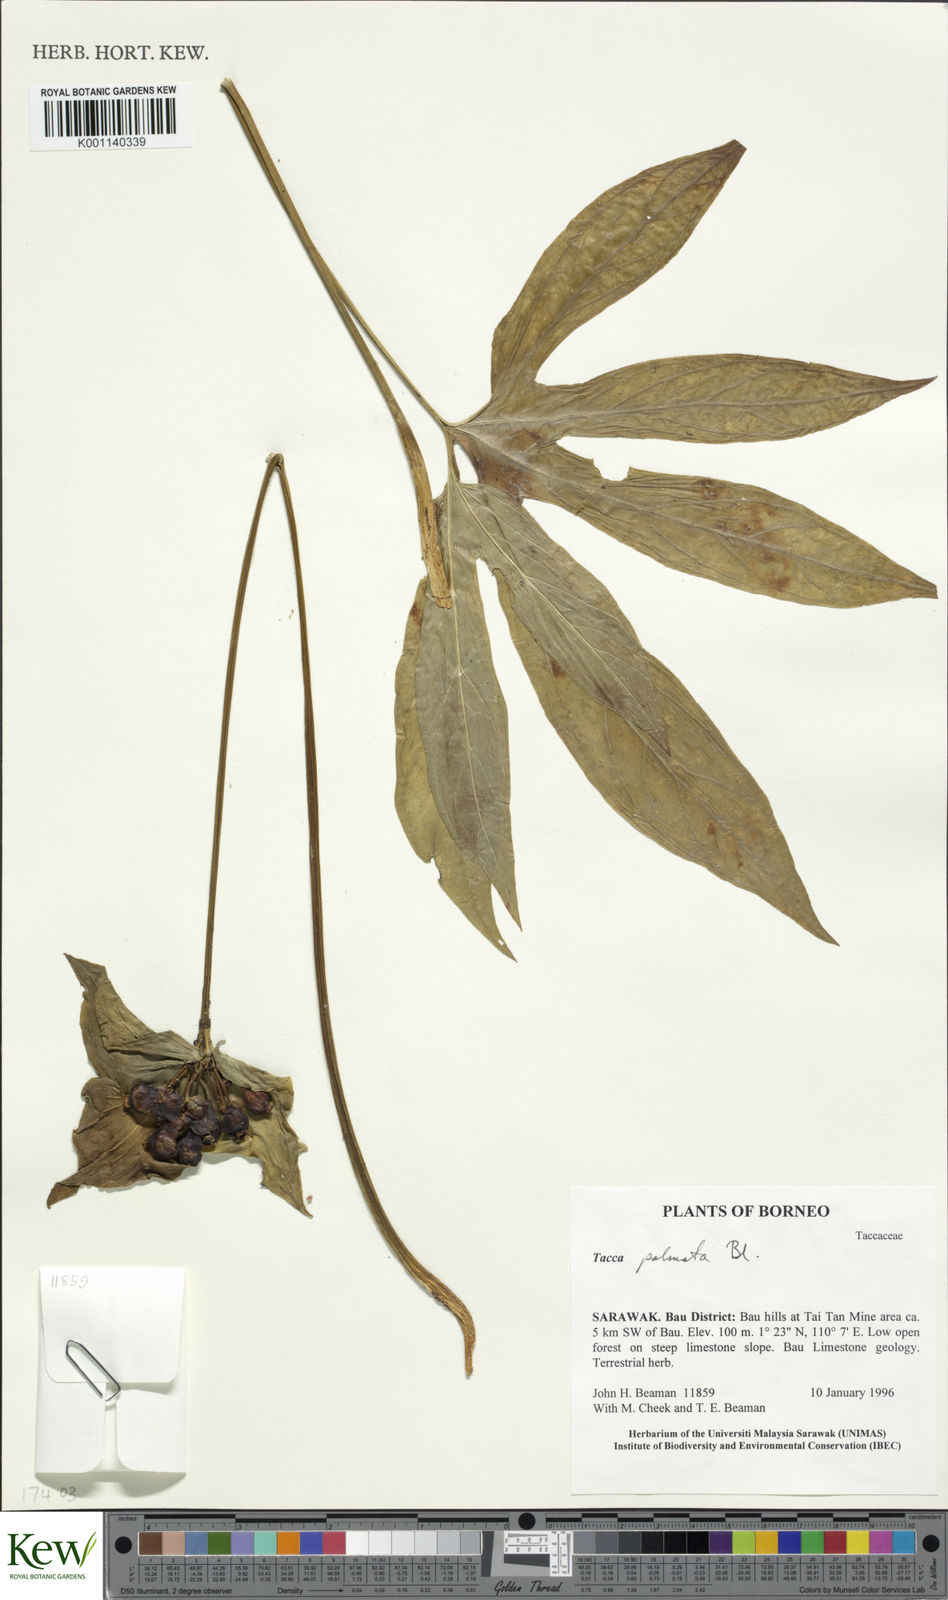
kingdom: Plantae
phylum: Tracheophyta
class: Liliopsida
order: Dioscoreales
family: Dioscoreaceae
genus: Tacca
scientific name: Tacca palmata
